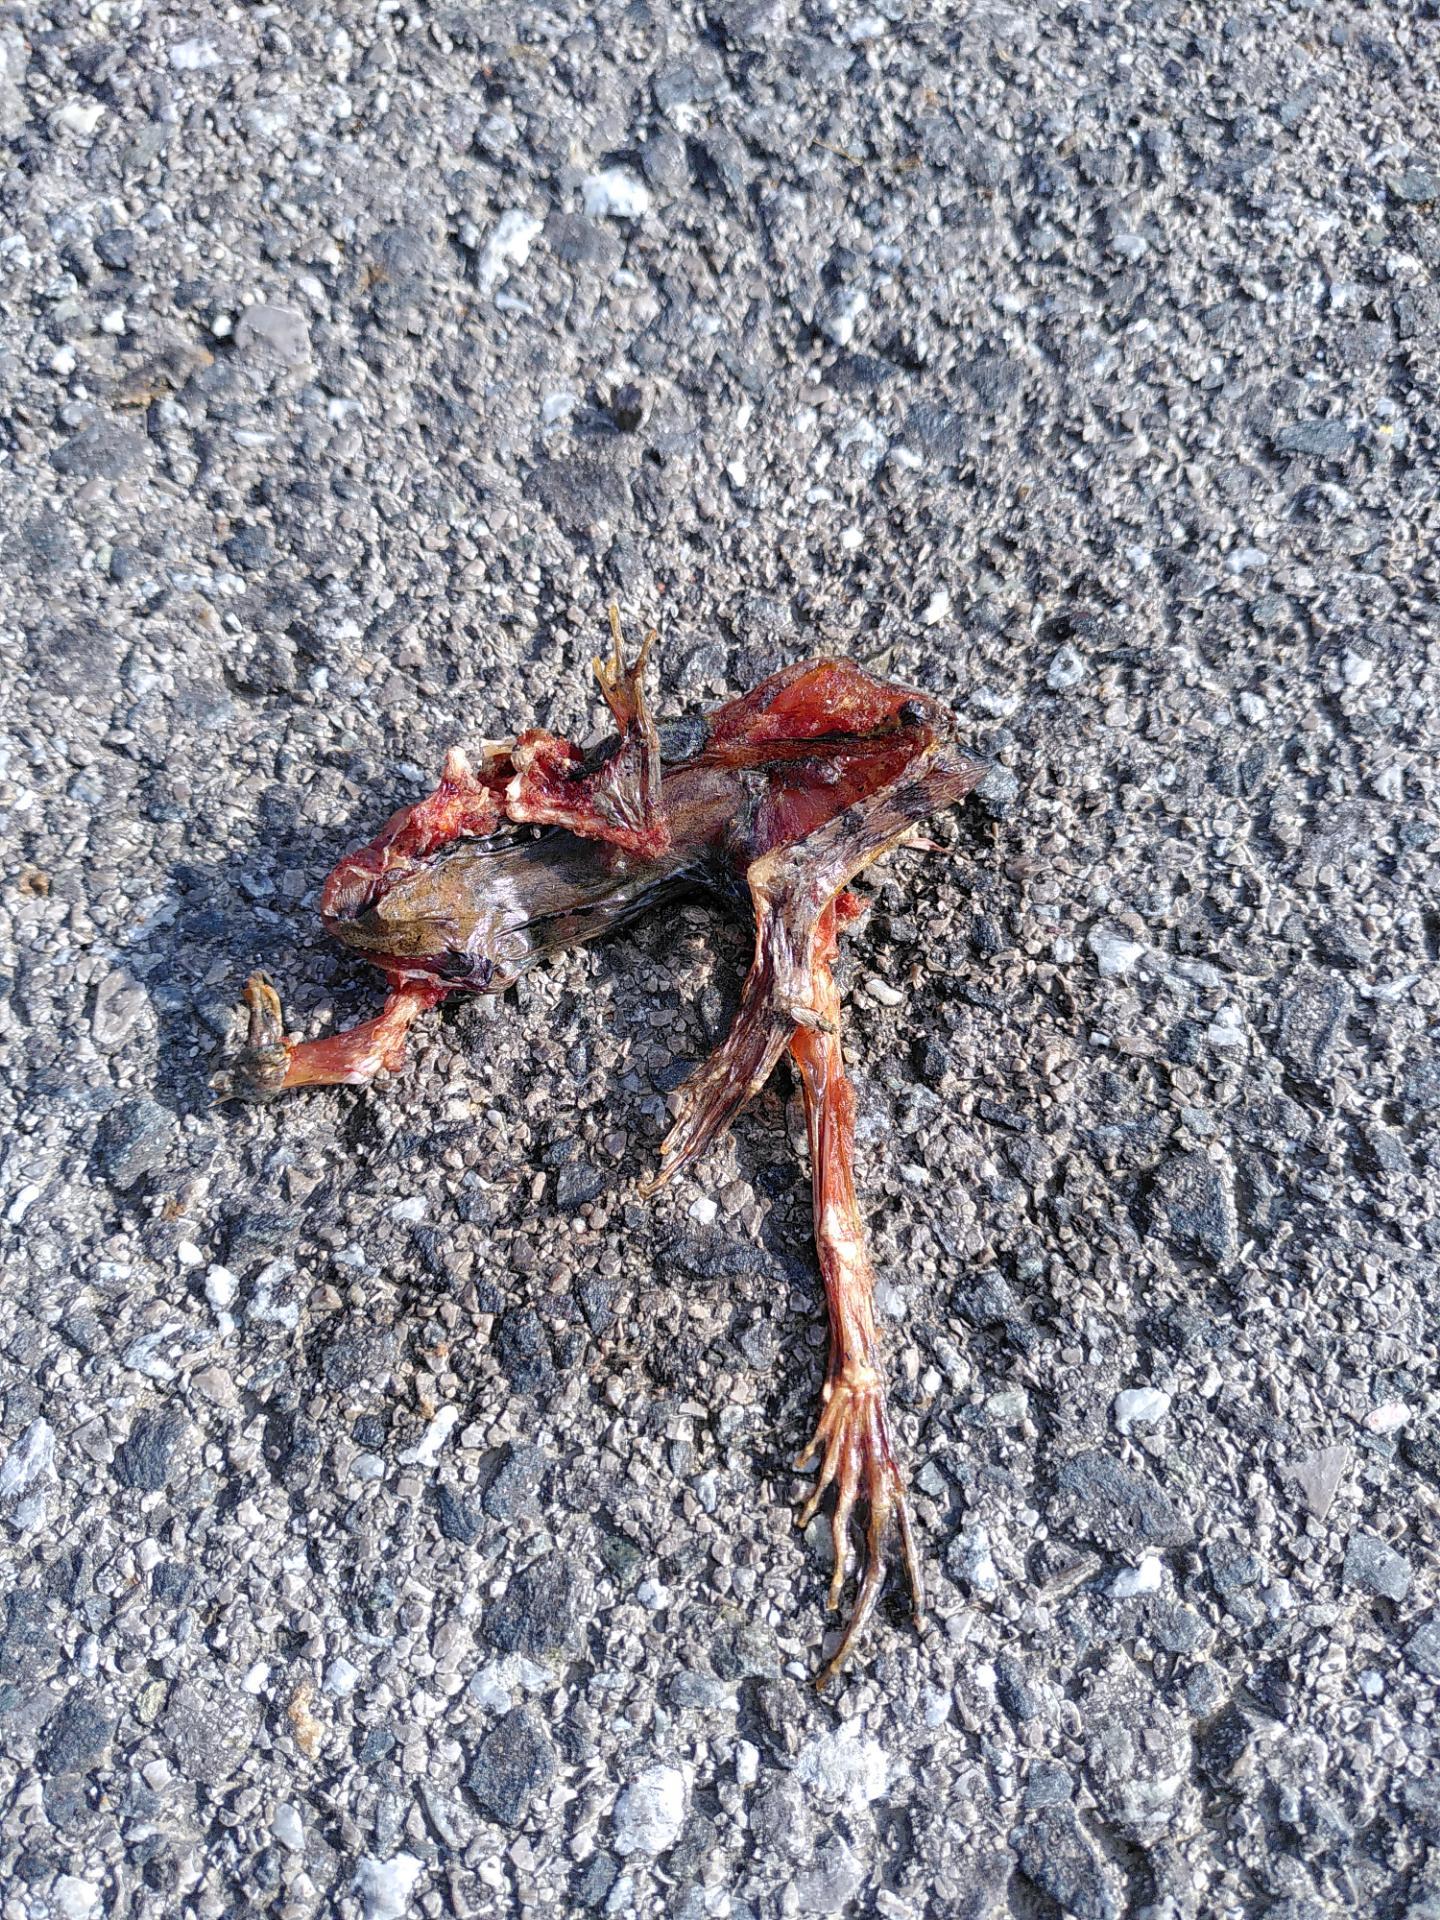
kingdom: Animalia
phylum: Chordata
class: Amphibia
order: Anura
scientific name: Anura
